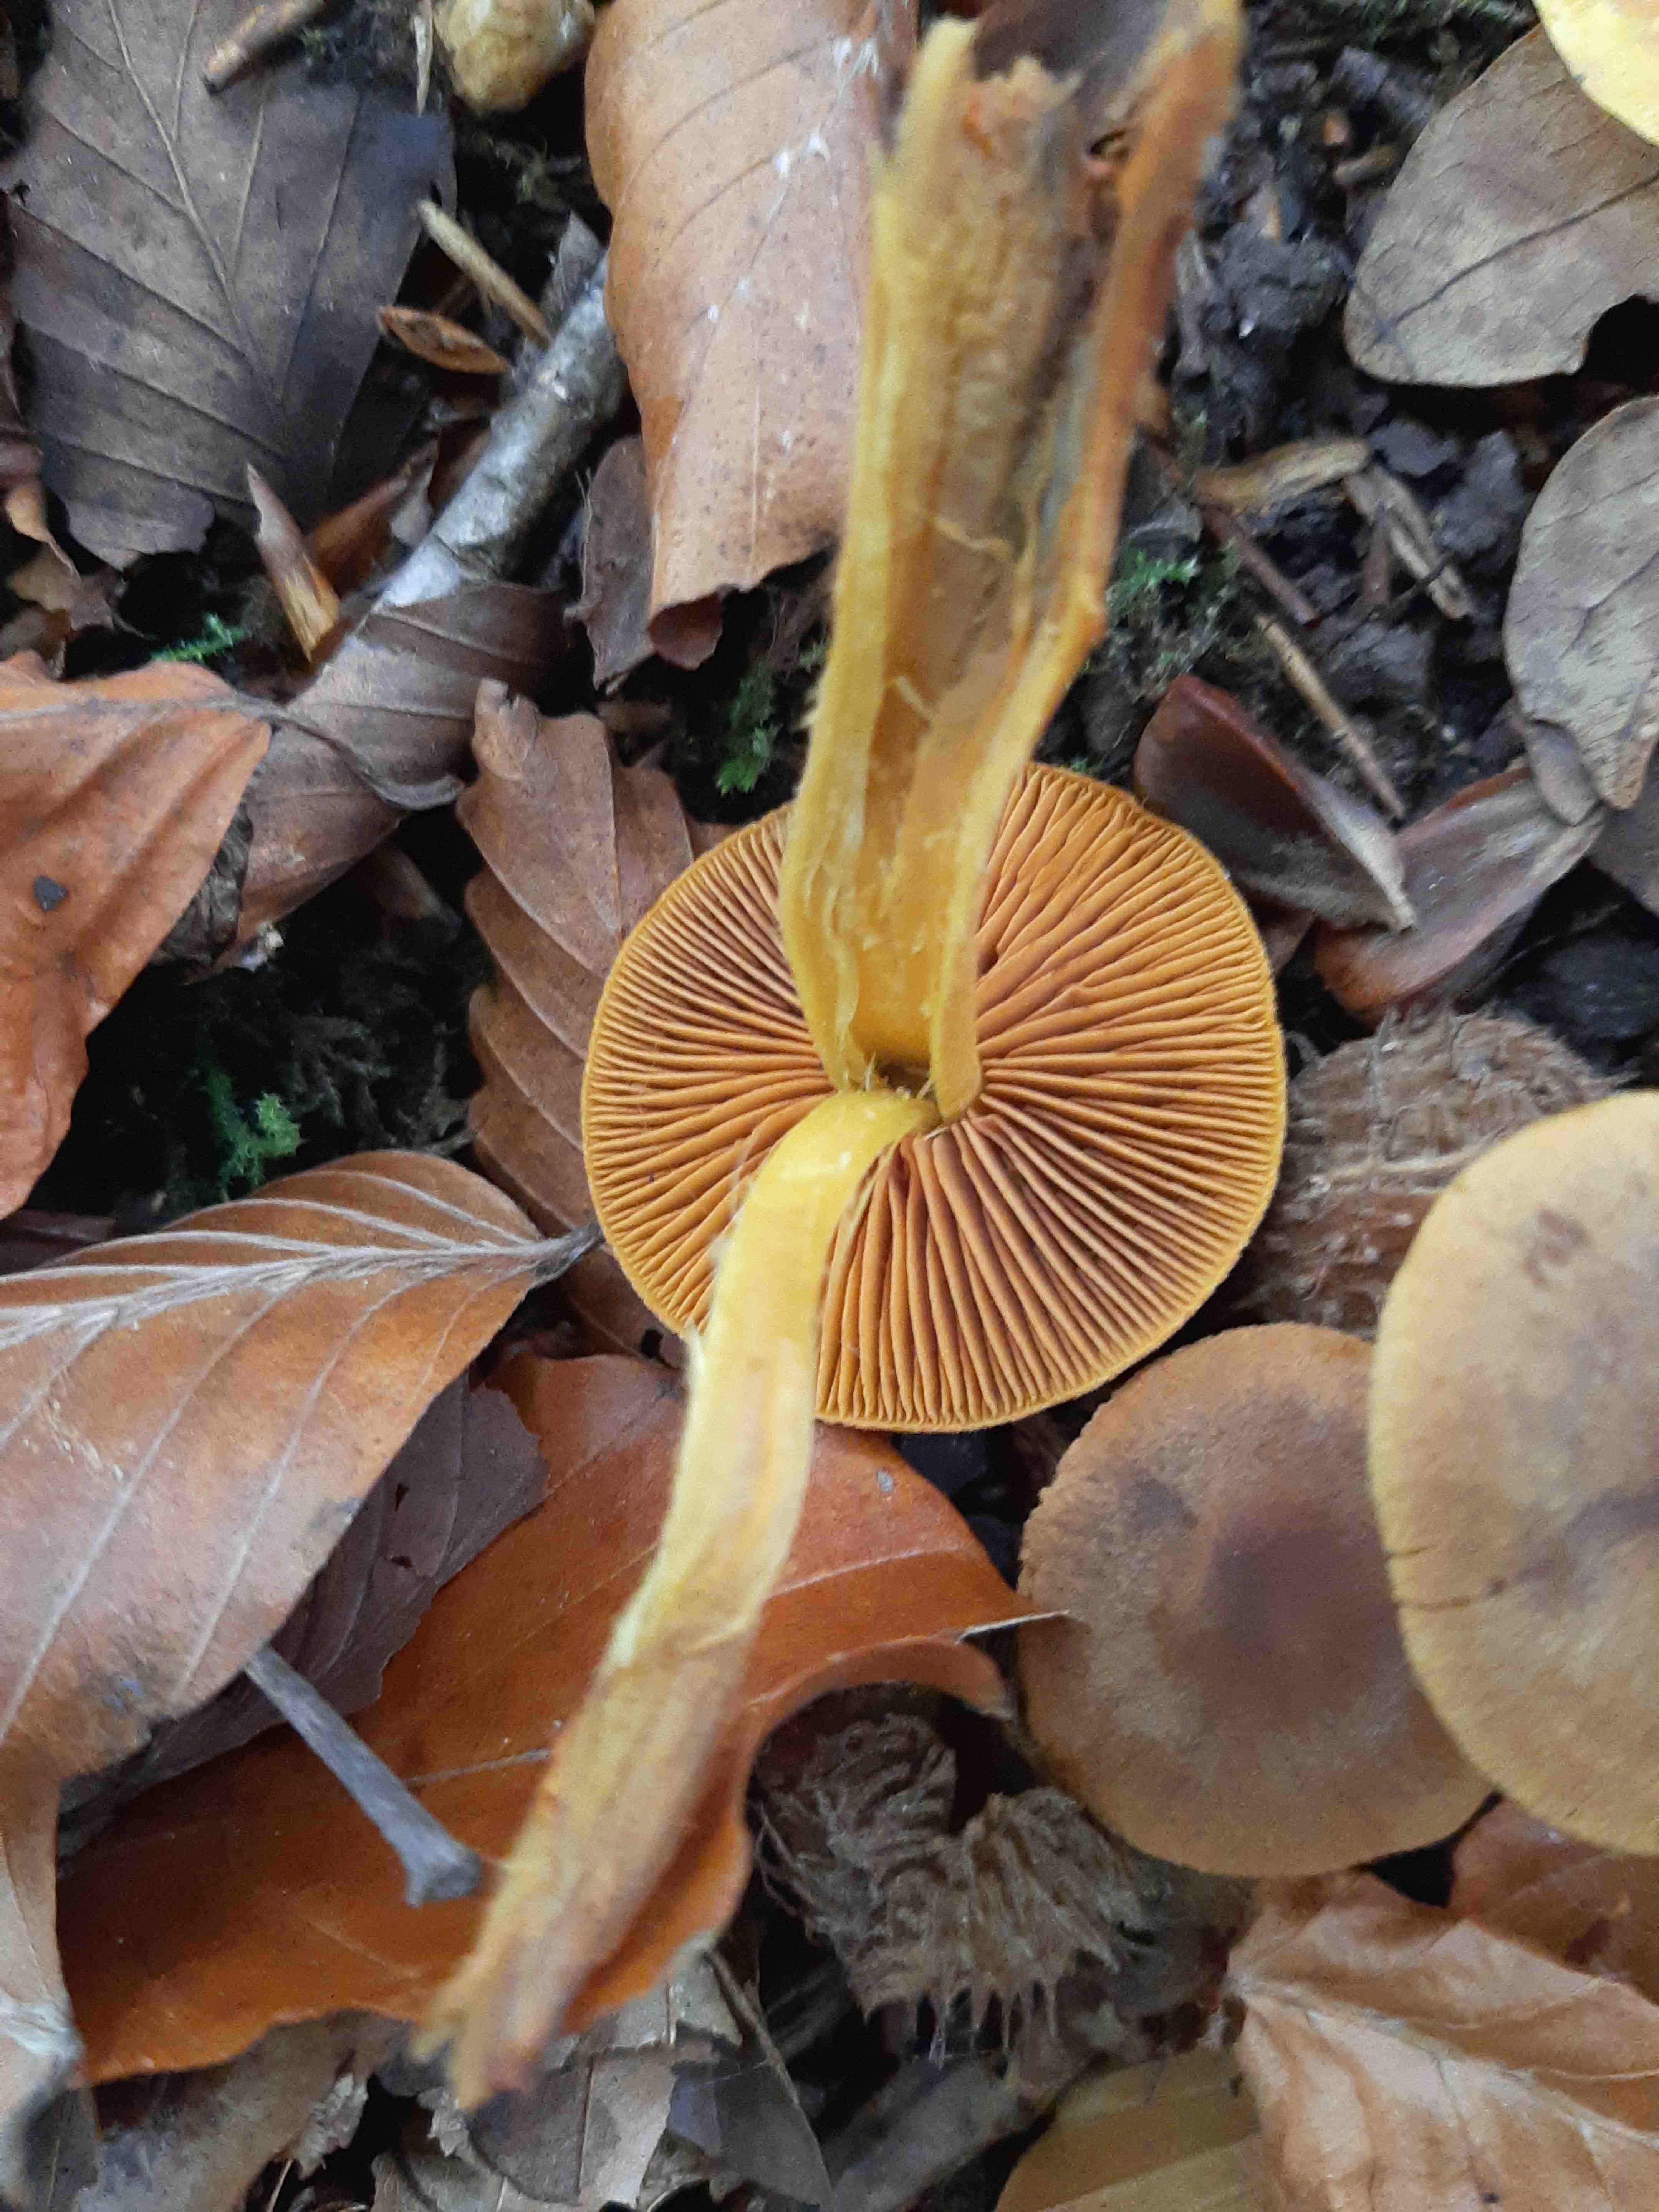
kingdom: Fungi
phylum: Basidiomycota
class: Agaricomycetes
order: Agaricales
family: Cortinariaceae
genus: Cortinarius
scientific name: Cortinarius cinnamomeus
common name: kanel-slørhat
